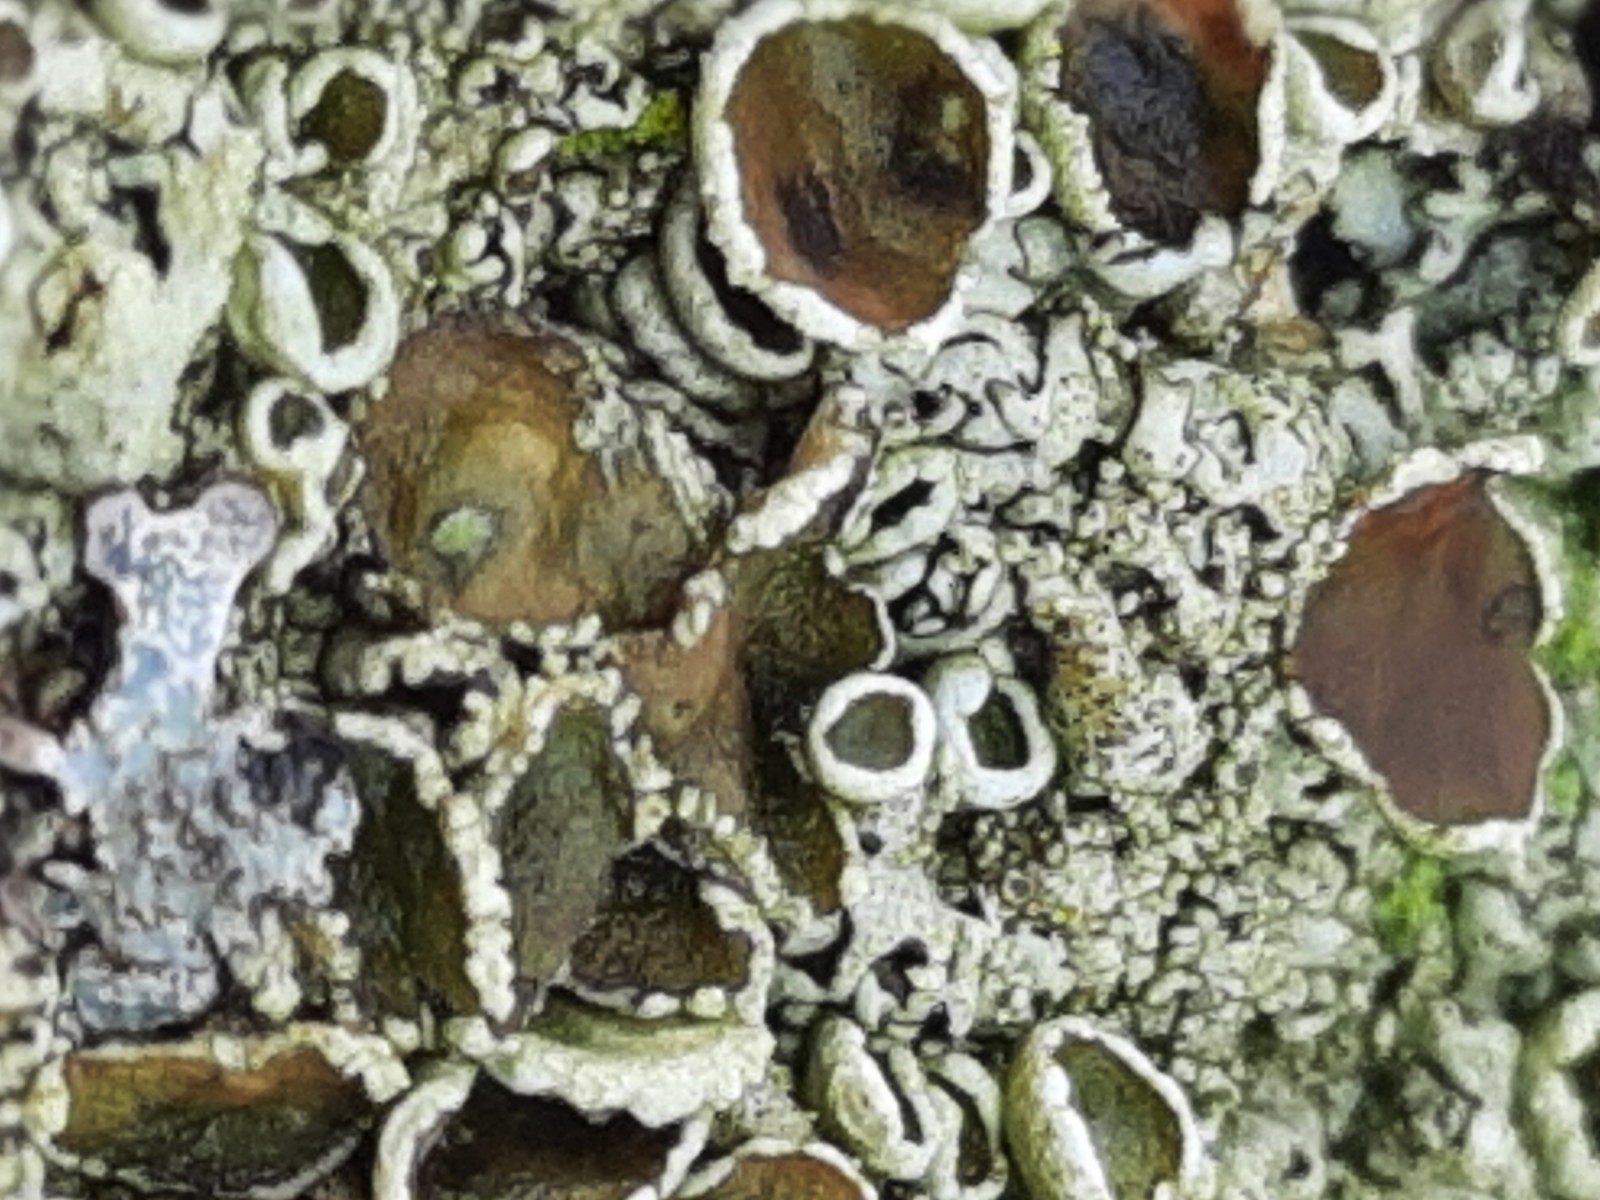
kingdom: Fungi
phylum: Ascomycota
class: Lecanoromycetes
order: Lecanorales
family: Parmeliaceae
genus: Xanthoparmelia
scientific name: Xanthoparmelia conspersa
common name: messing-skållav
